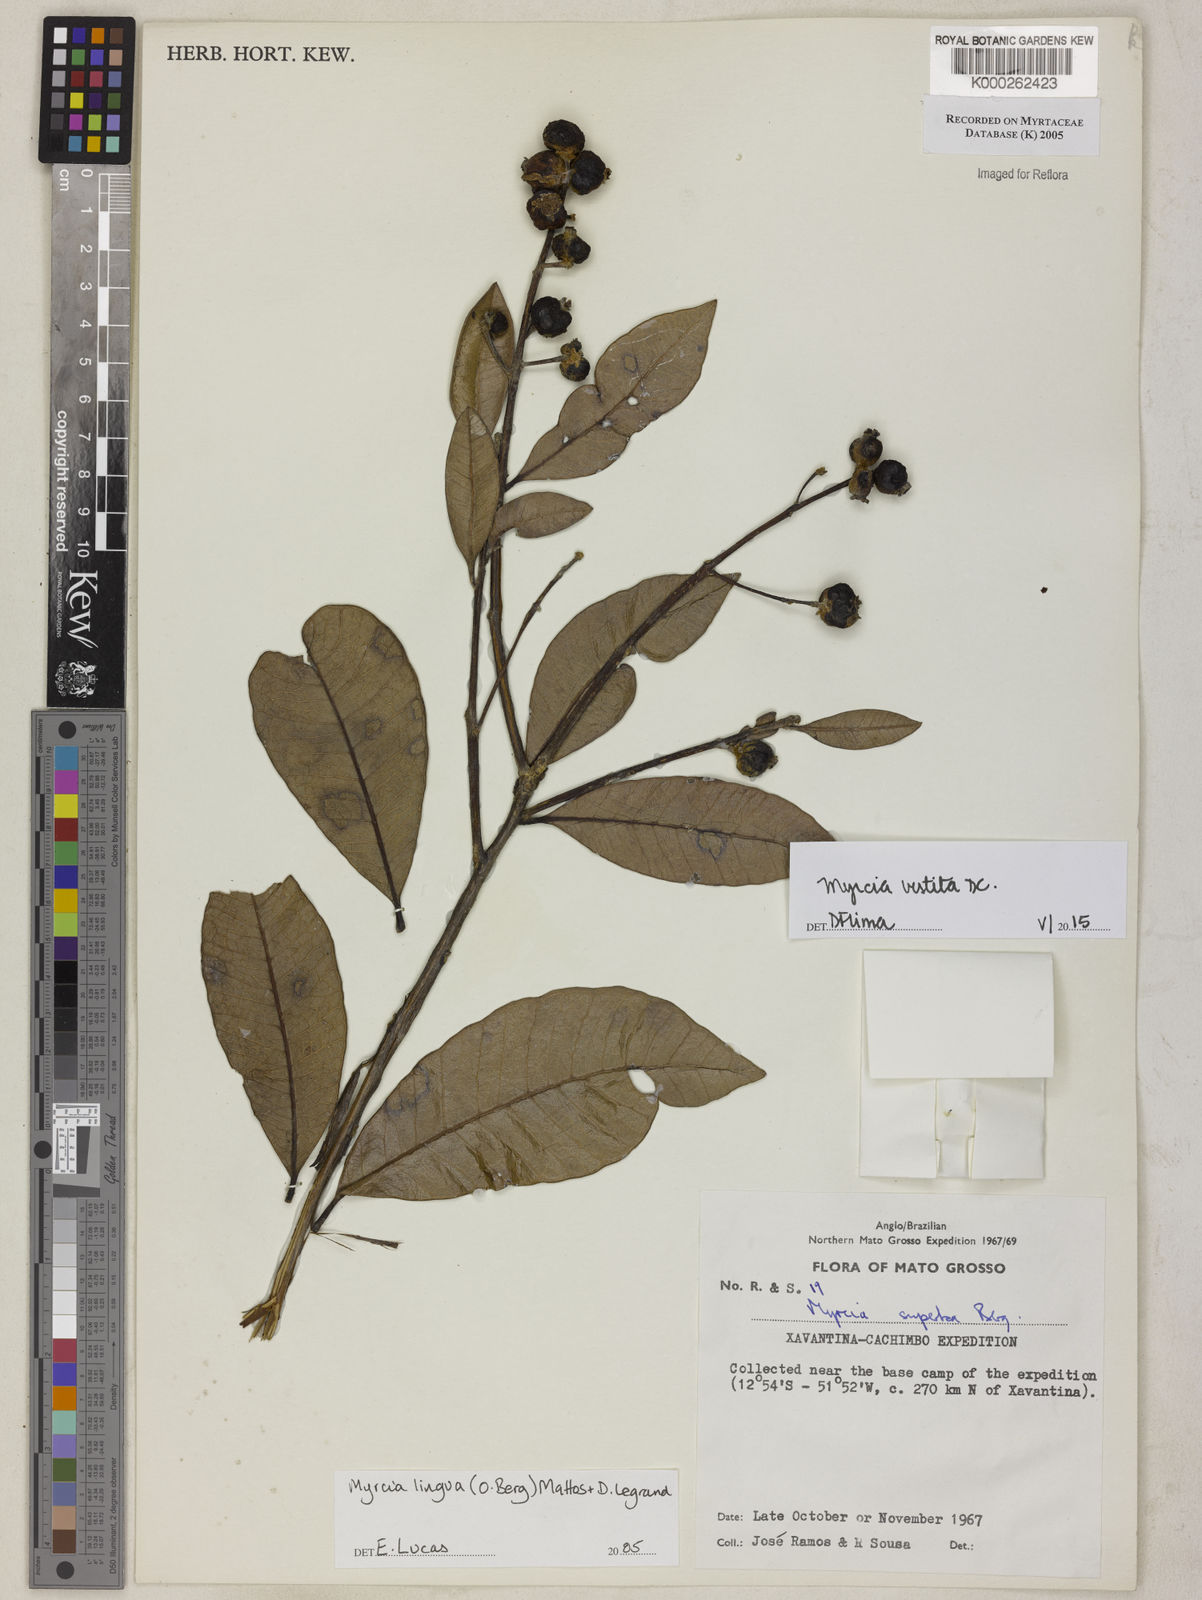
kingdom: Plantae
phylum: Tracheophyta
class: Magnoliopsida
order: Myrtales
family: Myrtaceae
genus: Myrcia
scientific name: Myrcia guianensis
